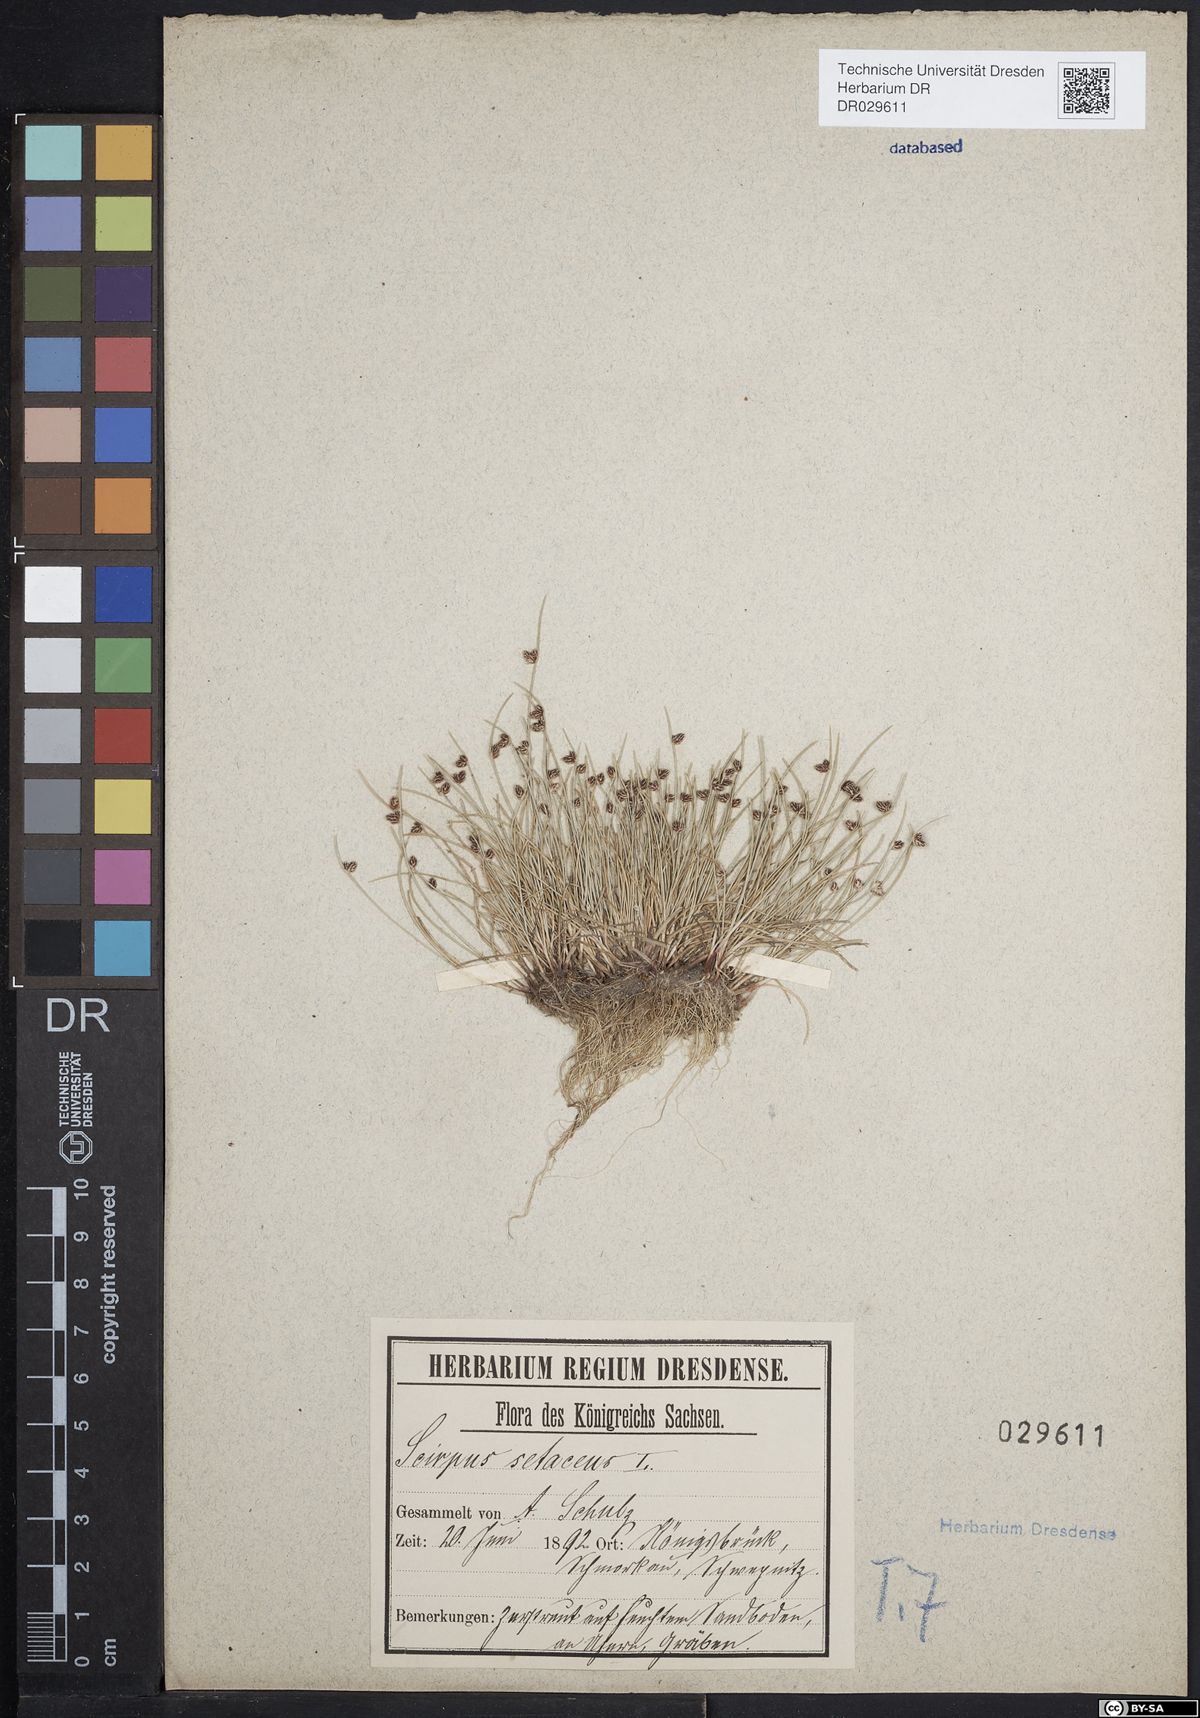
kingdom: Plantae
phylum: Tracheophyta
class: Liliopsida
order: Poales
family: Cyperaceae
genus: Isolepis
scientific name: Isolepis setacea
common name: Bristle club-rush
